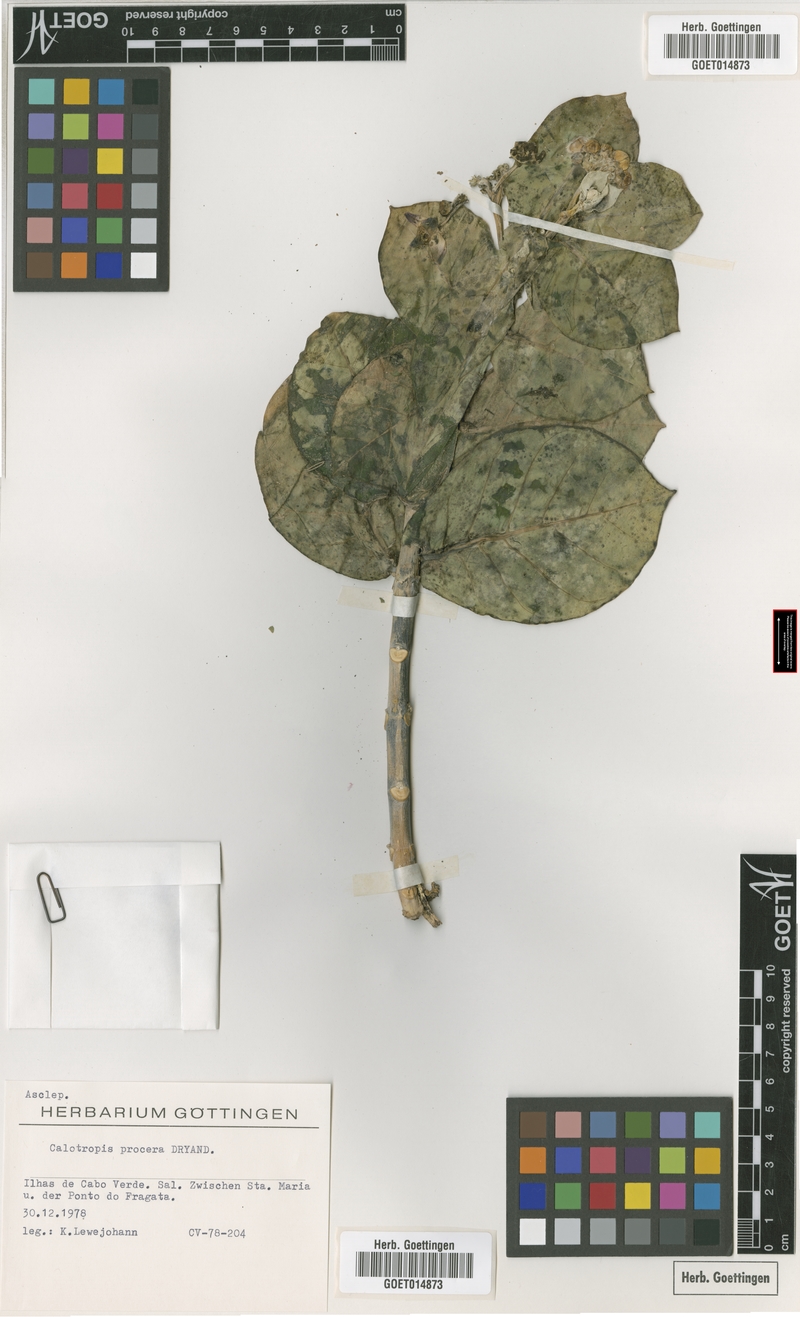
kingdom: Plantae
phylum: Tracheophyta
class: Magnoliopsida
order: Gentianales
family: Apocynaceae
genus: Calotropis
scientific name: Calotropis procera
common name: Roostertree
